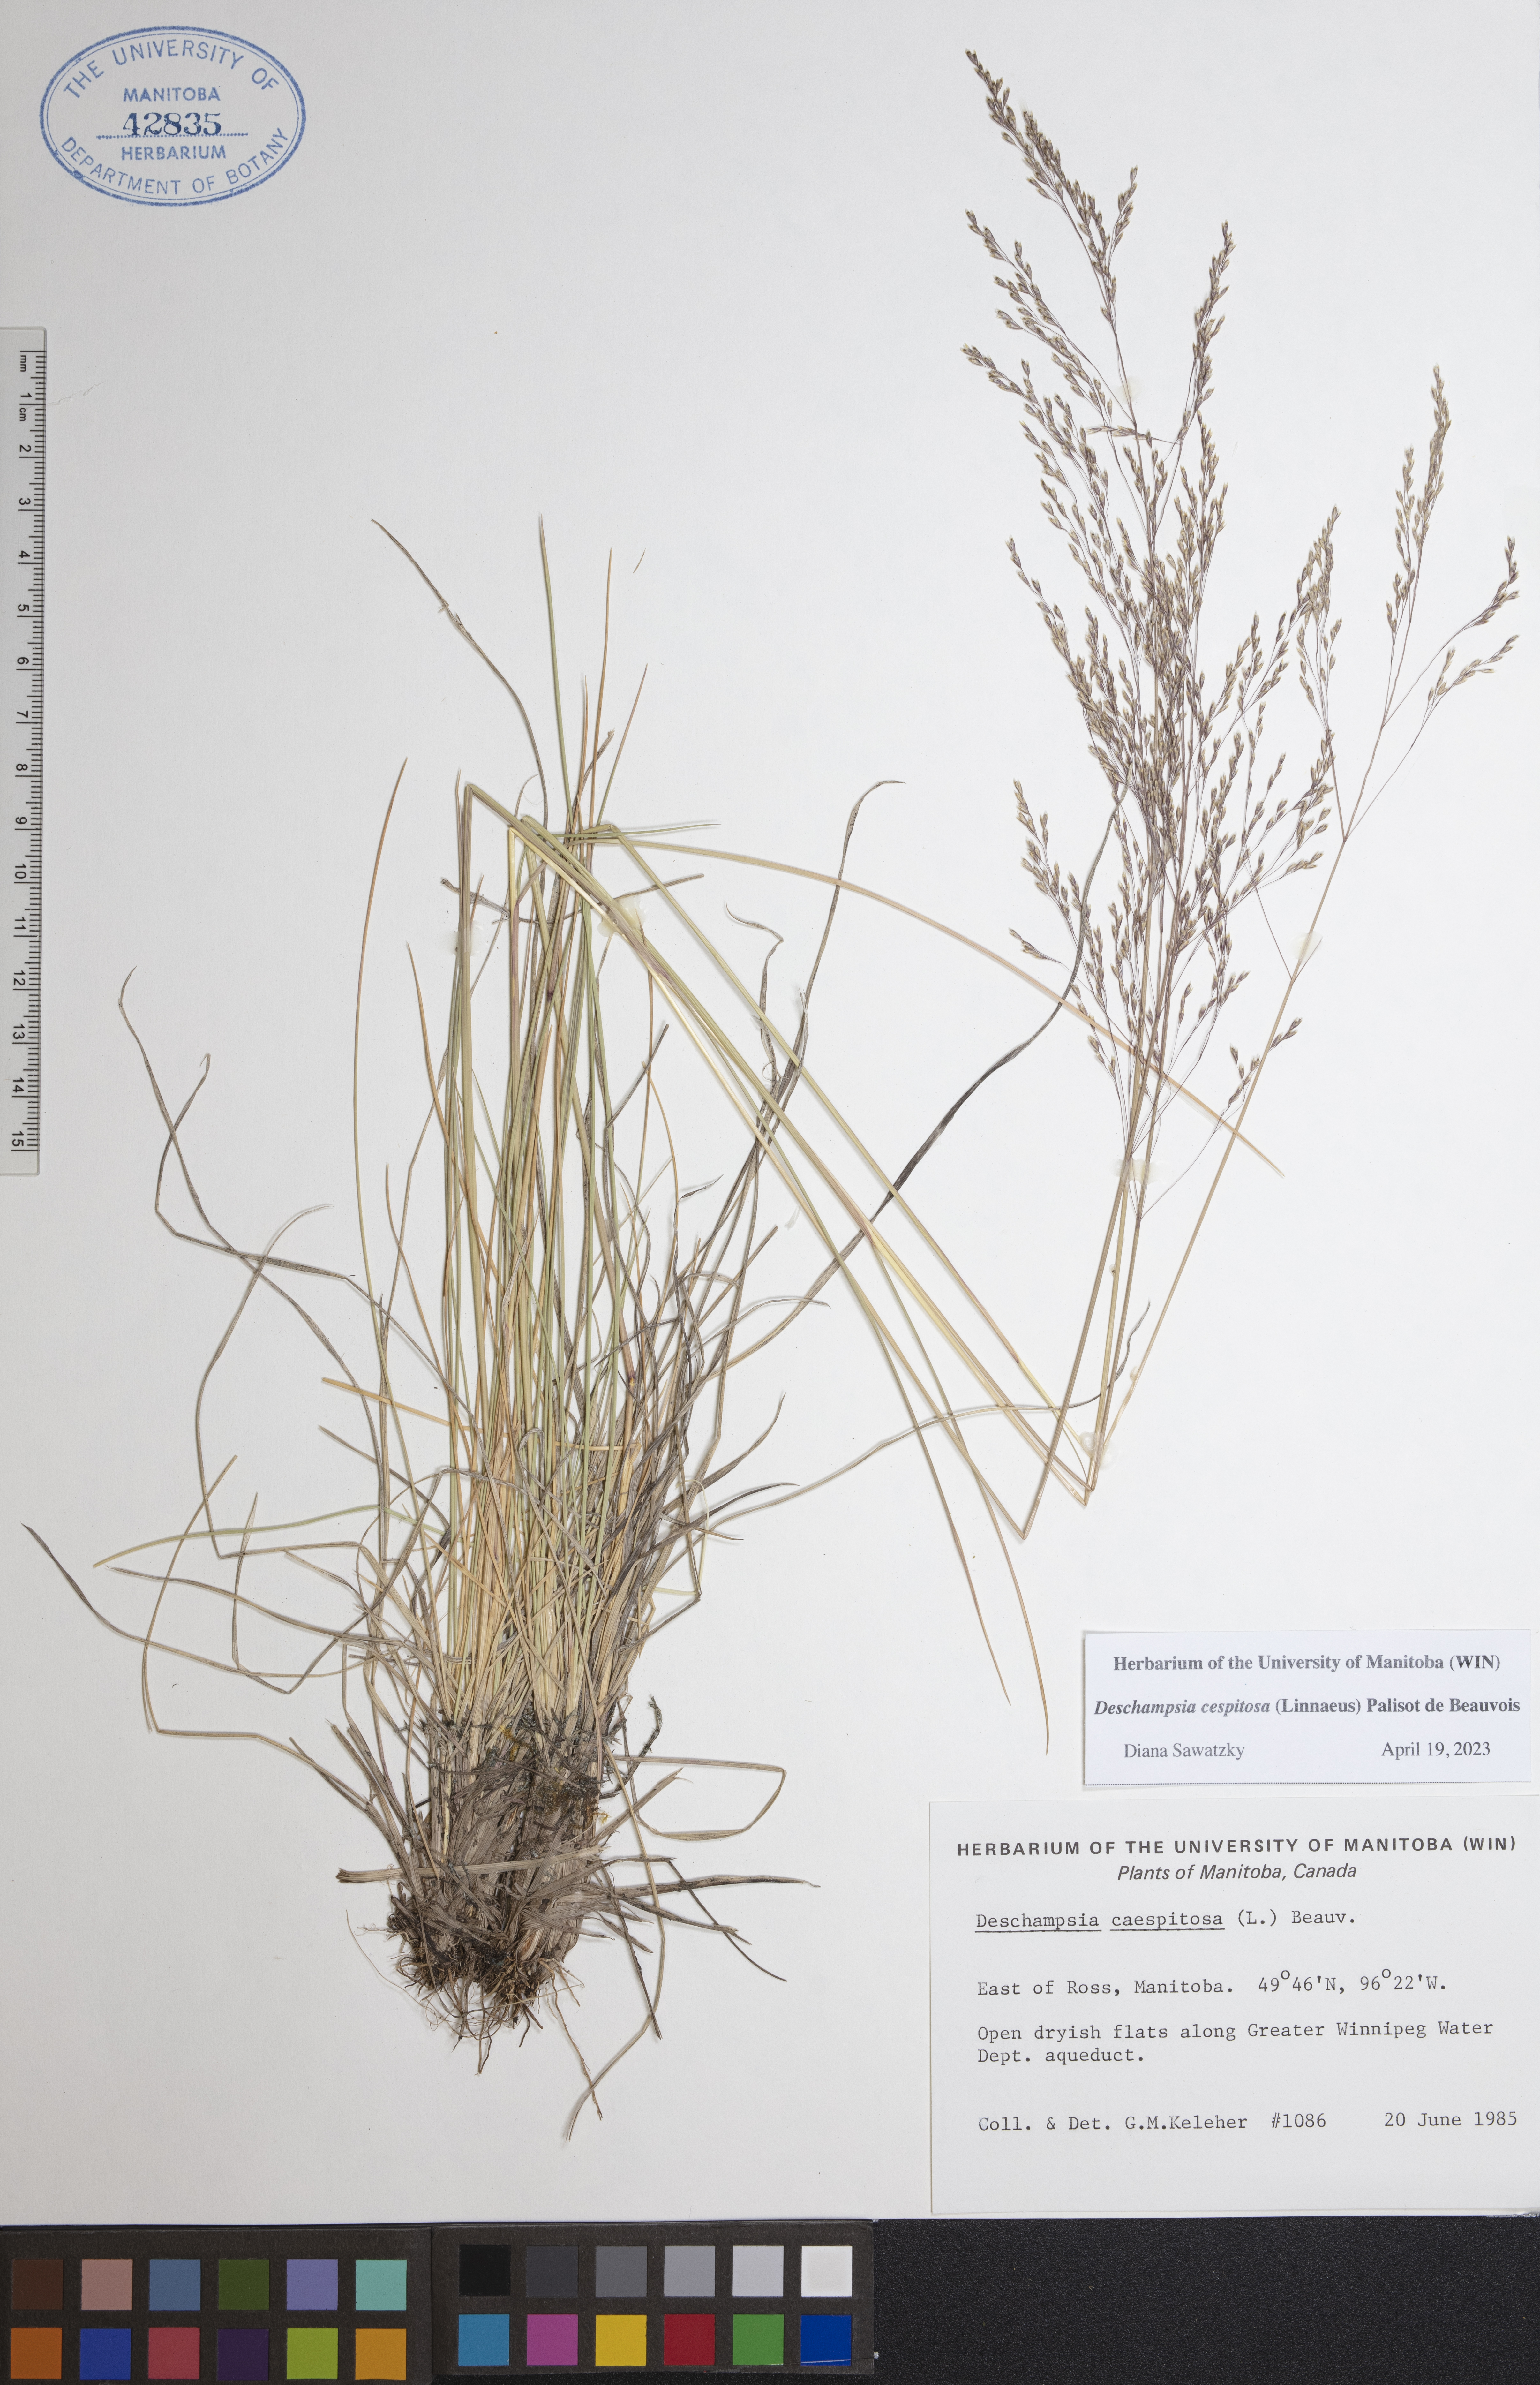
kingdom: Plantae
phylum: Tracheophyta
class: Liliopsida
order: Poales
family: Poaceae
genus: Deschampsia
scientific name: Deschampsia cespitosa
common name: Tufted hair-grass
